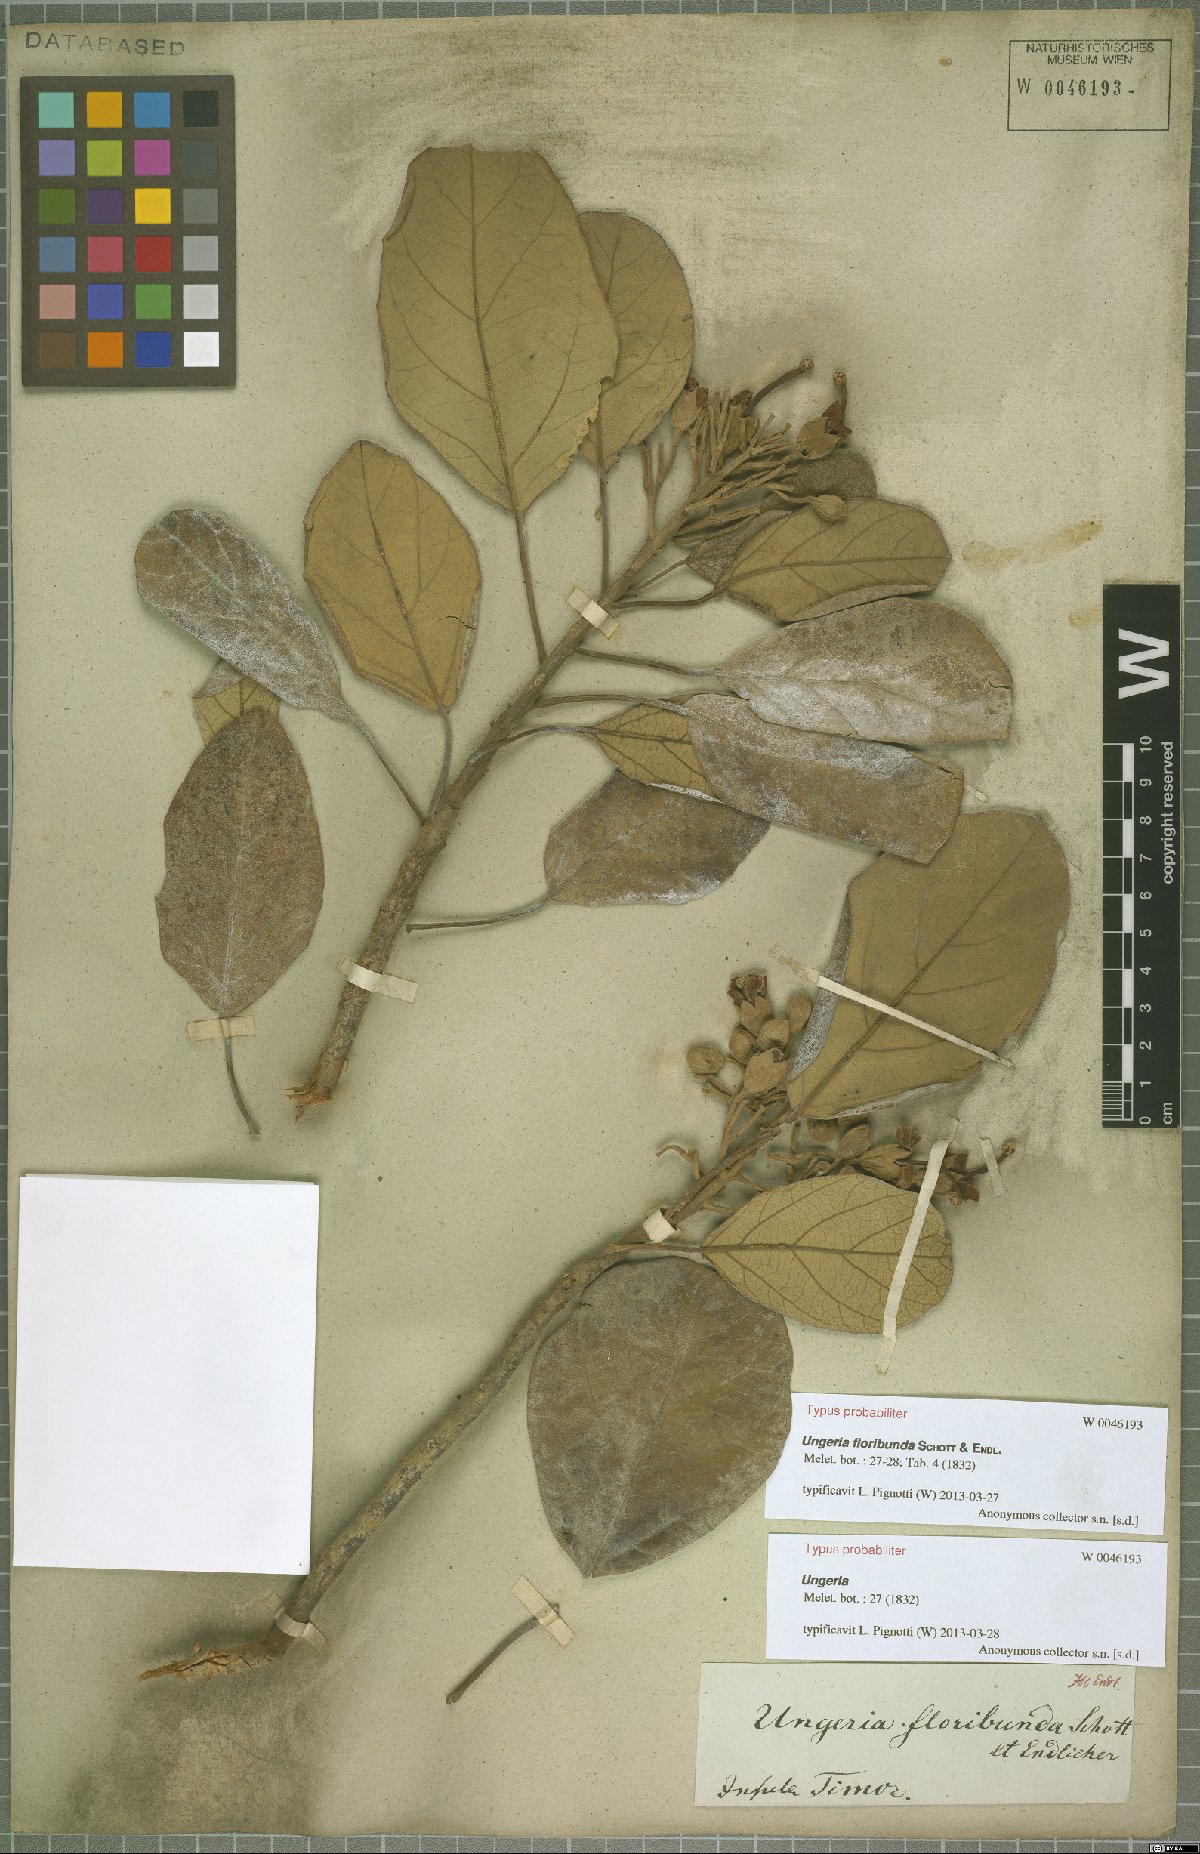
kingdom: Plantae
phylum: Tracheophyta
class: Magnoliopsida
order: Malvales
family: Malvaceae
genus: Ungeria
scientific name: Ungeria floribunda
